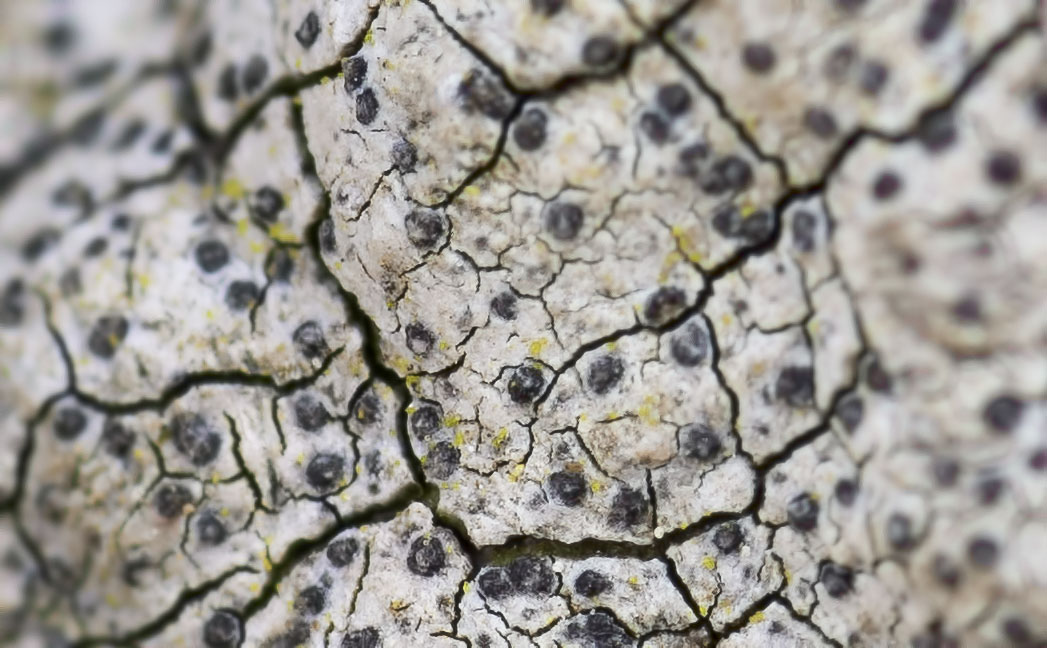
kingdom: Fungi
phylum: Ascomycota
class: Lecanoromycetes
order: Ostropales
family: Graphidaceae
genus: Opegrapha
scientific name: Opegrapha vulgata
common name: oliven-bogstavlav
